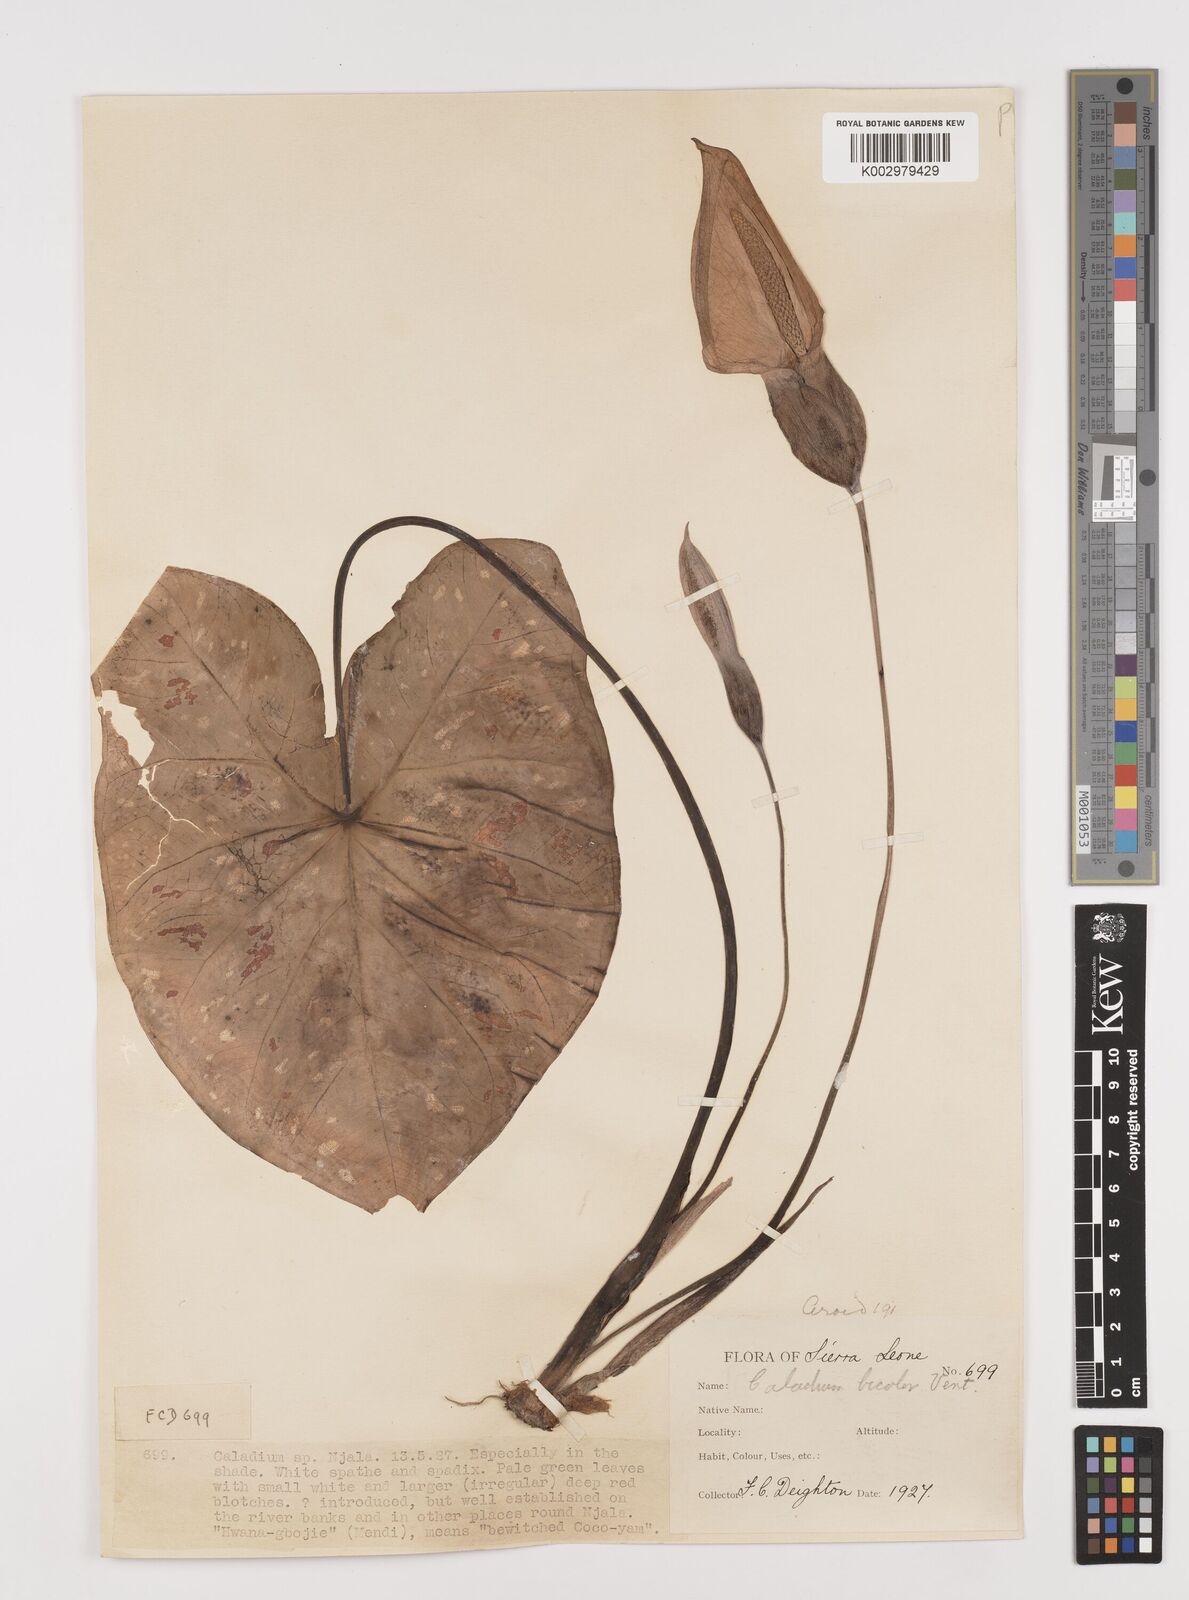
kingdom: Plantae
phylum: Tracheophyta
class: Liliopsida
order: Alismatales
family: Araceae
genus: Caladium
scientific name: Caladium bicolor
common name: Artist's pallet
